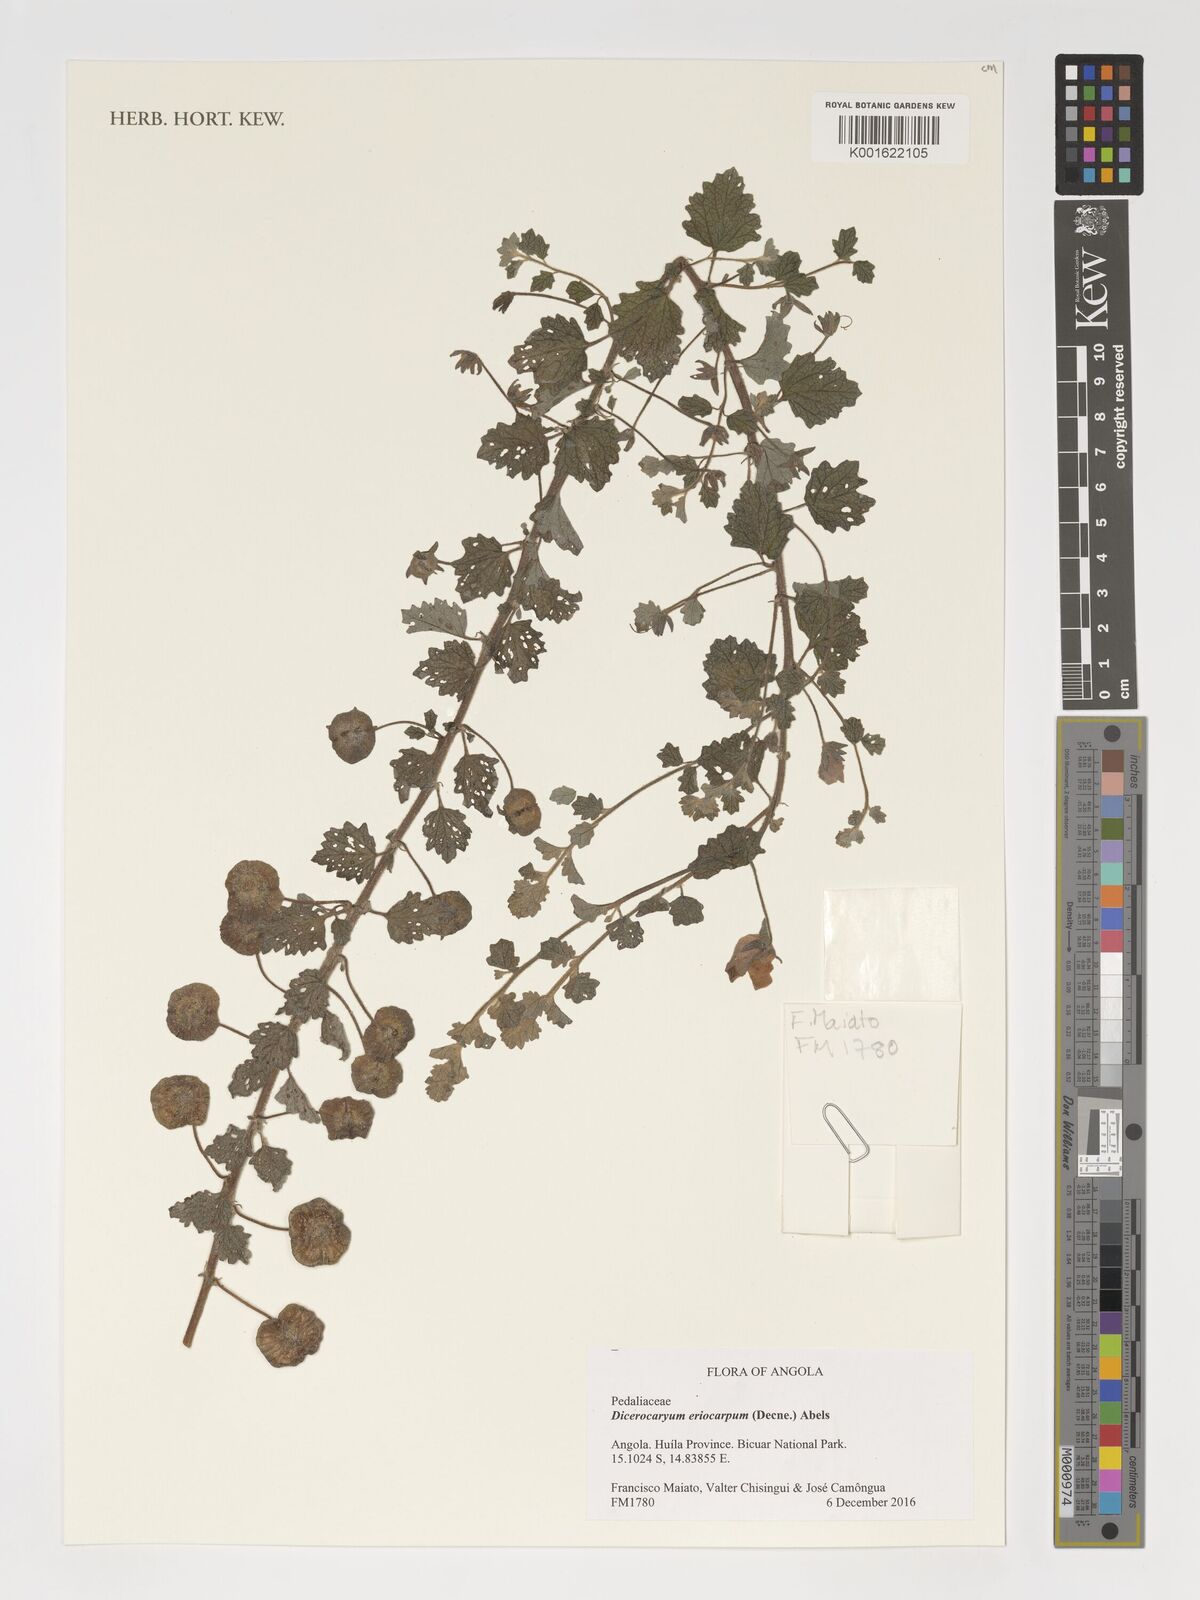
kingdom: Plantae
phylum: Tracheophyta
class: Magnoliopsida
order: Lamiales
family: Pedaliaceae
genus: Dicerocaryum
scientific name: Dicerocaryum eriocarpum
